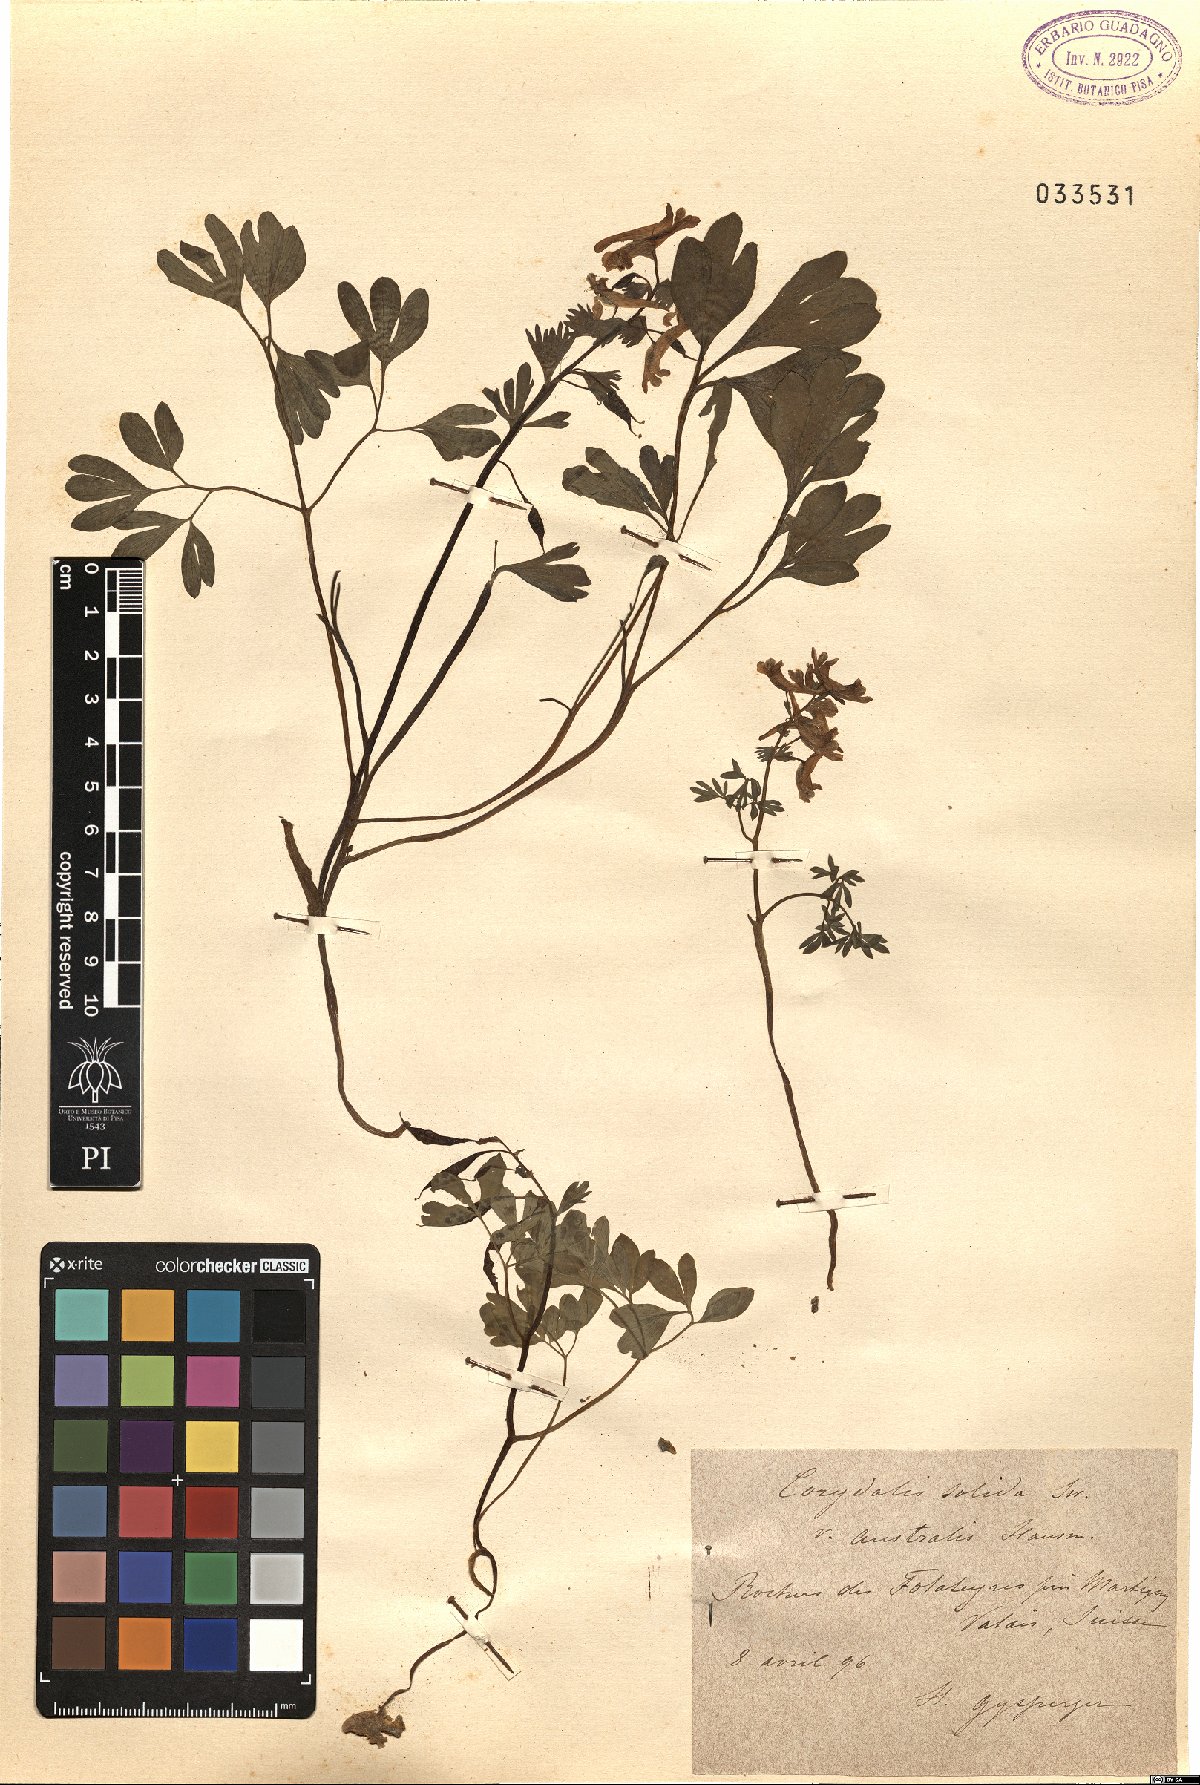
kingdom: Plantae
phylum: Tracheophyta
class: Magnoliopsida
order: Ranunculales
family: Papaveraceae
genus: Corydalis
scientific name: Corydalis solida
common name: Bird-in-a-bush
